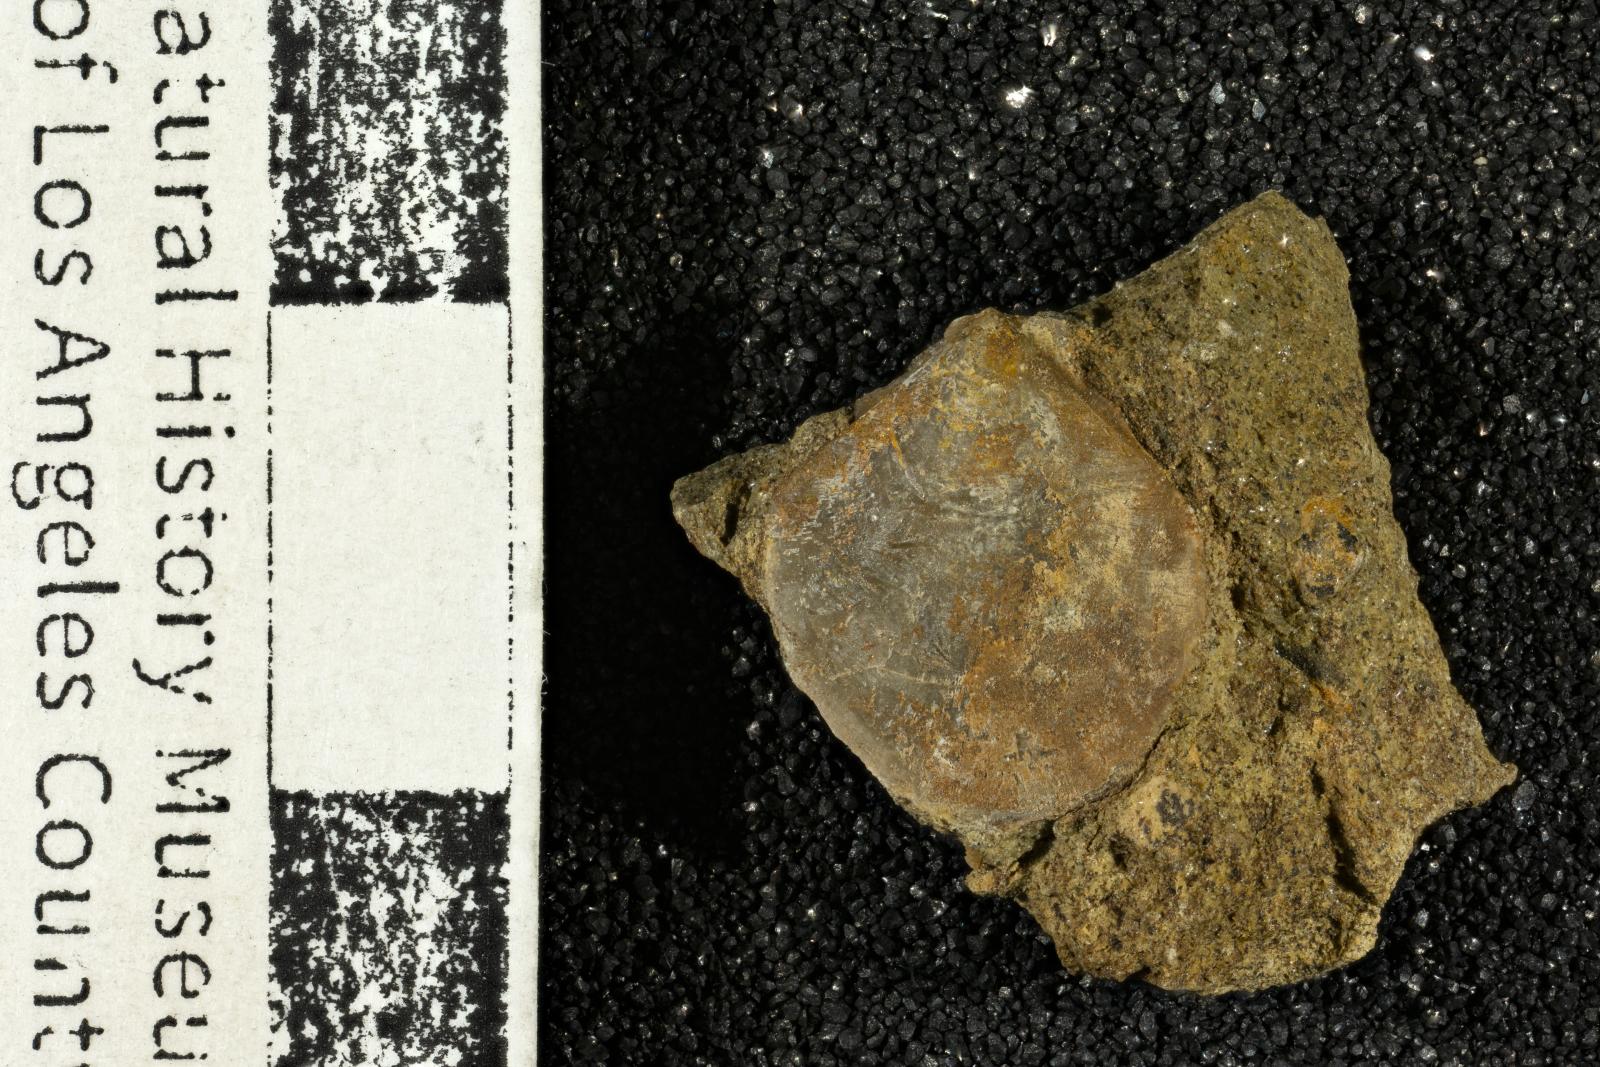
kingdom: Animalia
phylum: Mollusca
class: Bivalvia
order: Pectinida
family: Entoliidae
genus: Syncyclonema
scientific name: Syncyclonema Pecten operculiformis
